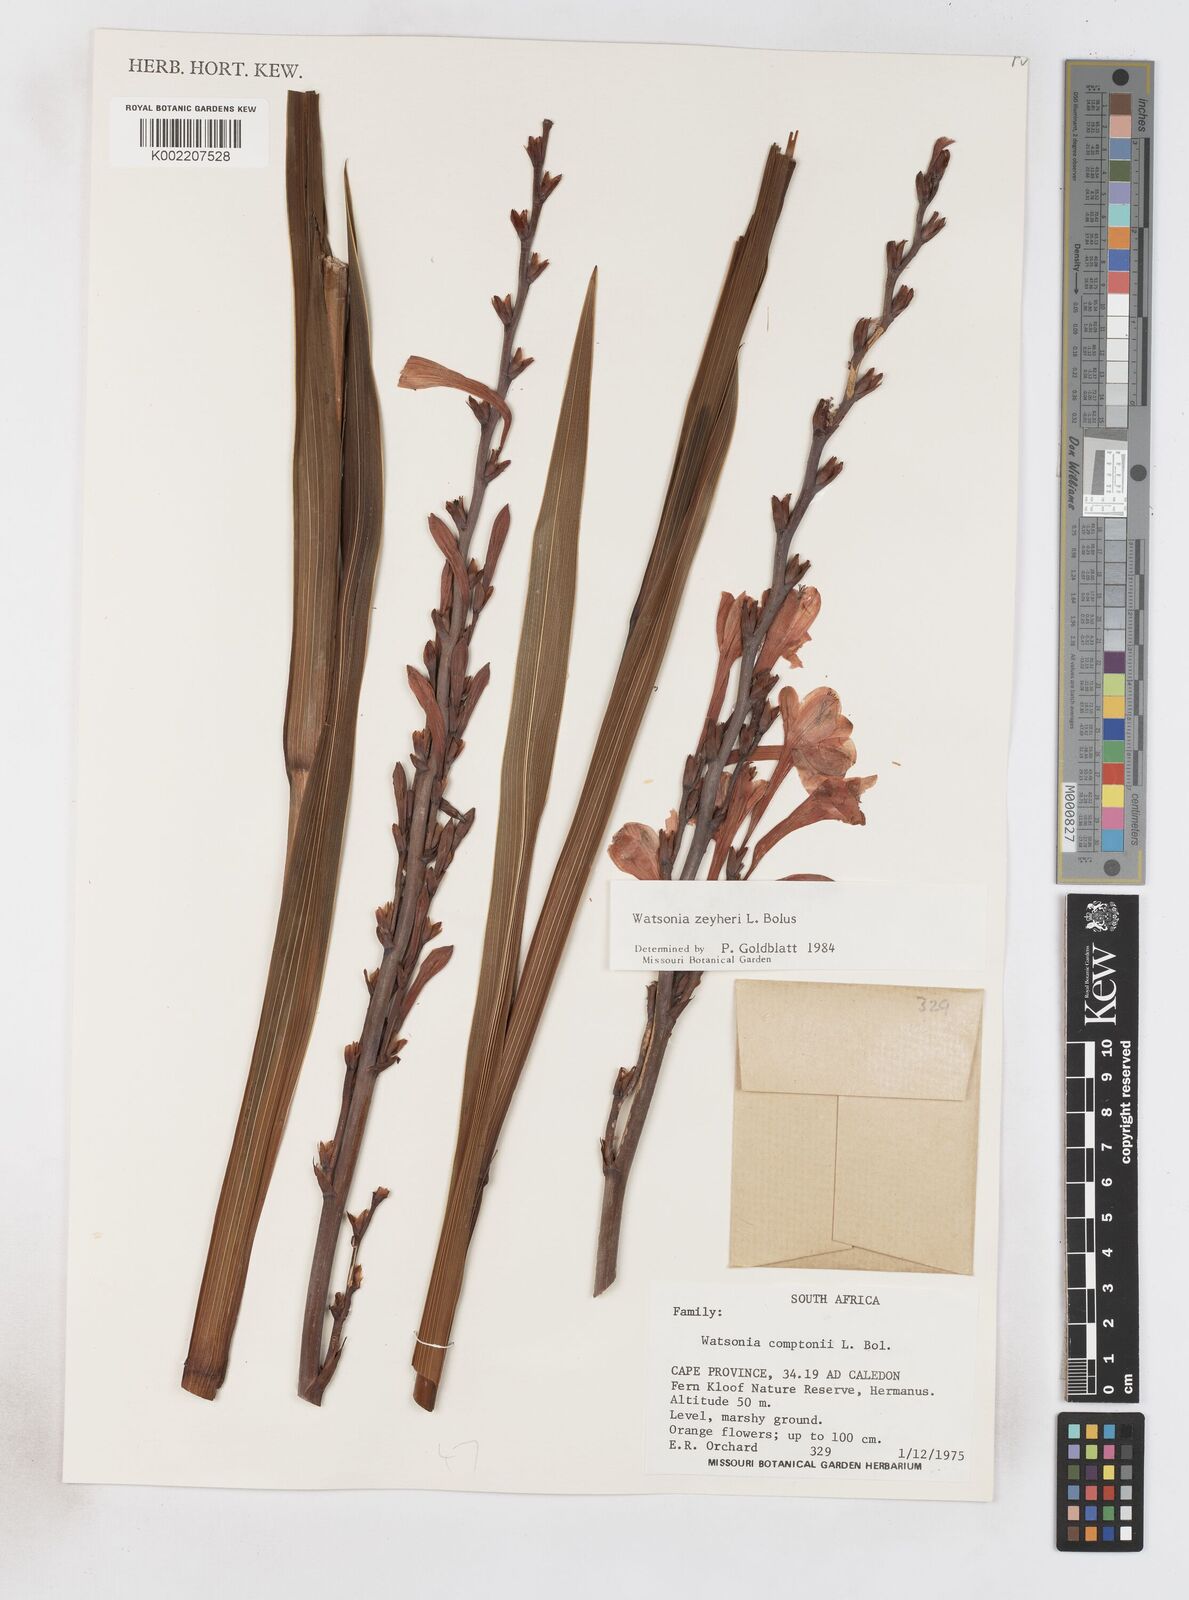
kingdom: Plantae
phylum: Tracheophyta
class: Liliopsida
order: Asparagales
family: Iridaceae
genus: Watsonia
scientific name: Watsonia zeyheri
